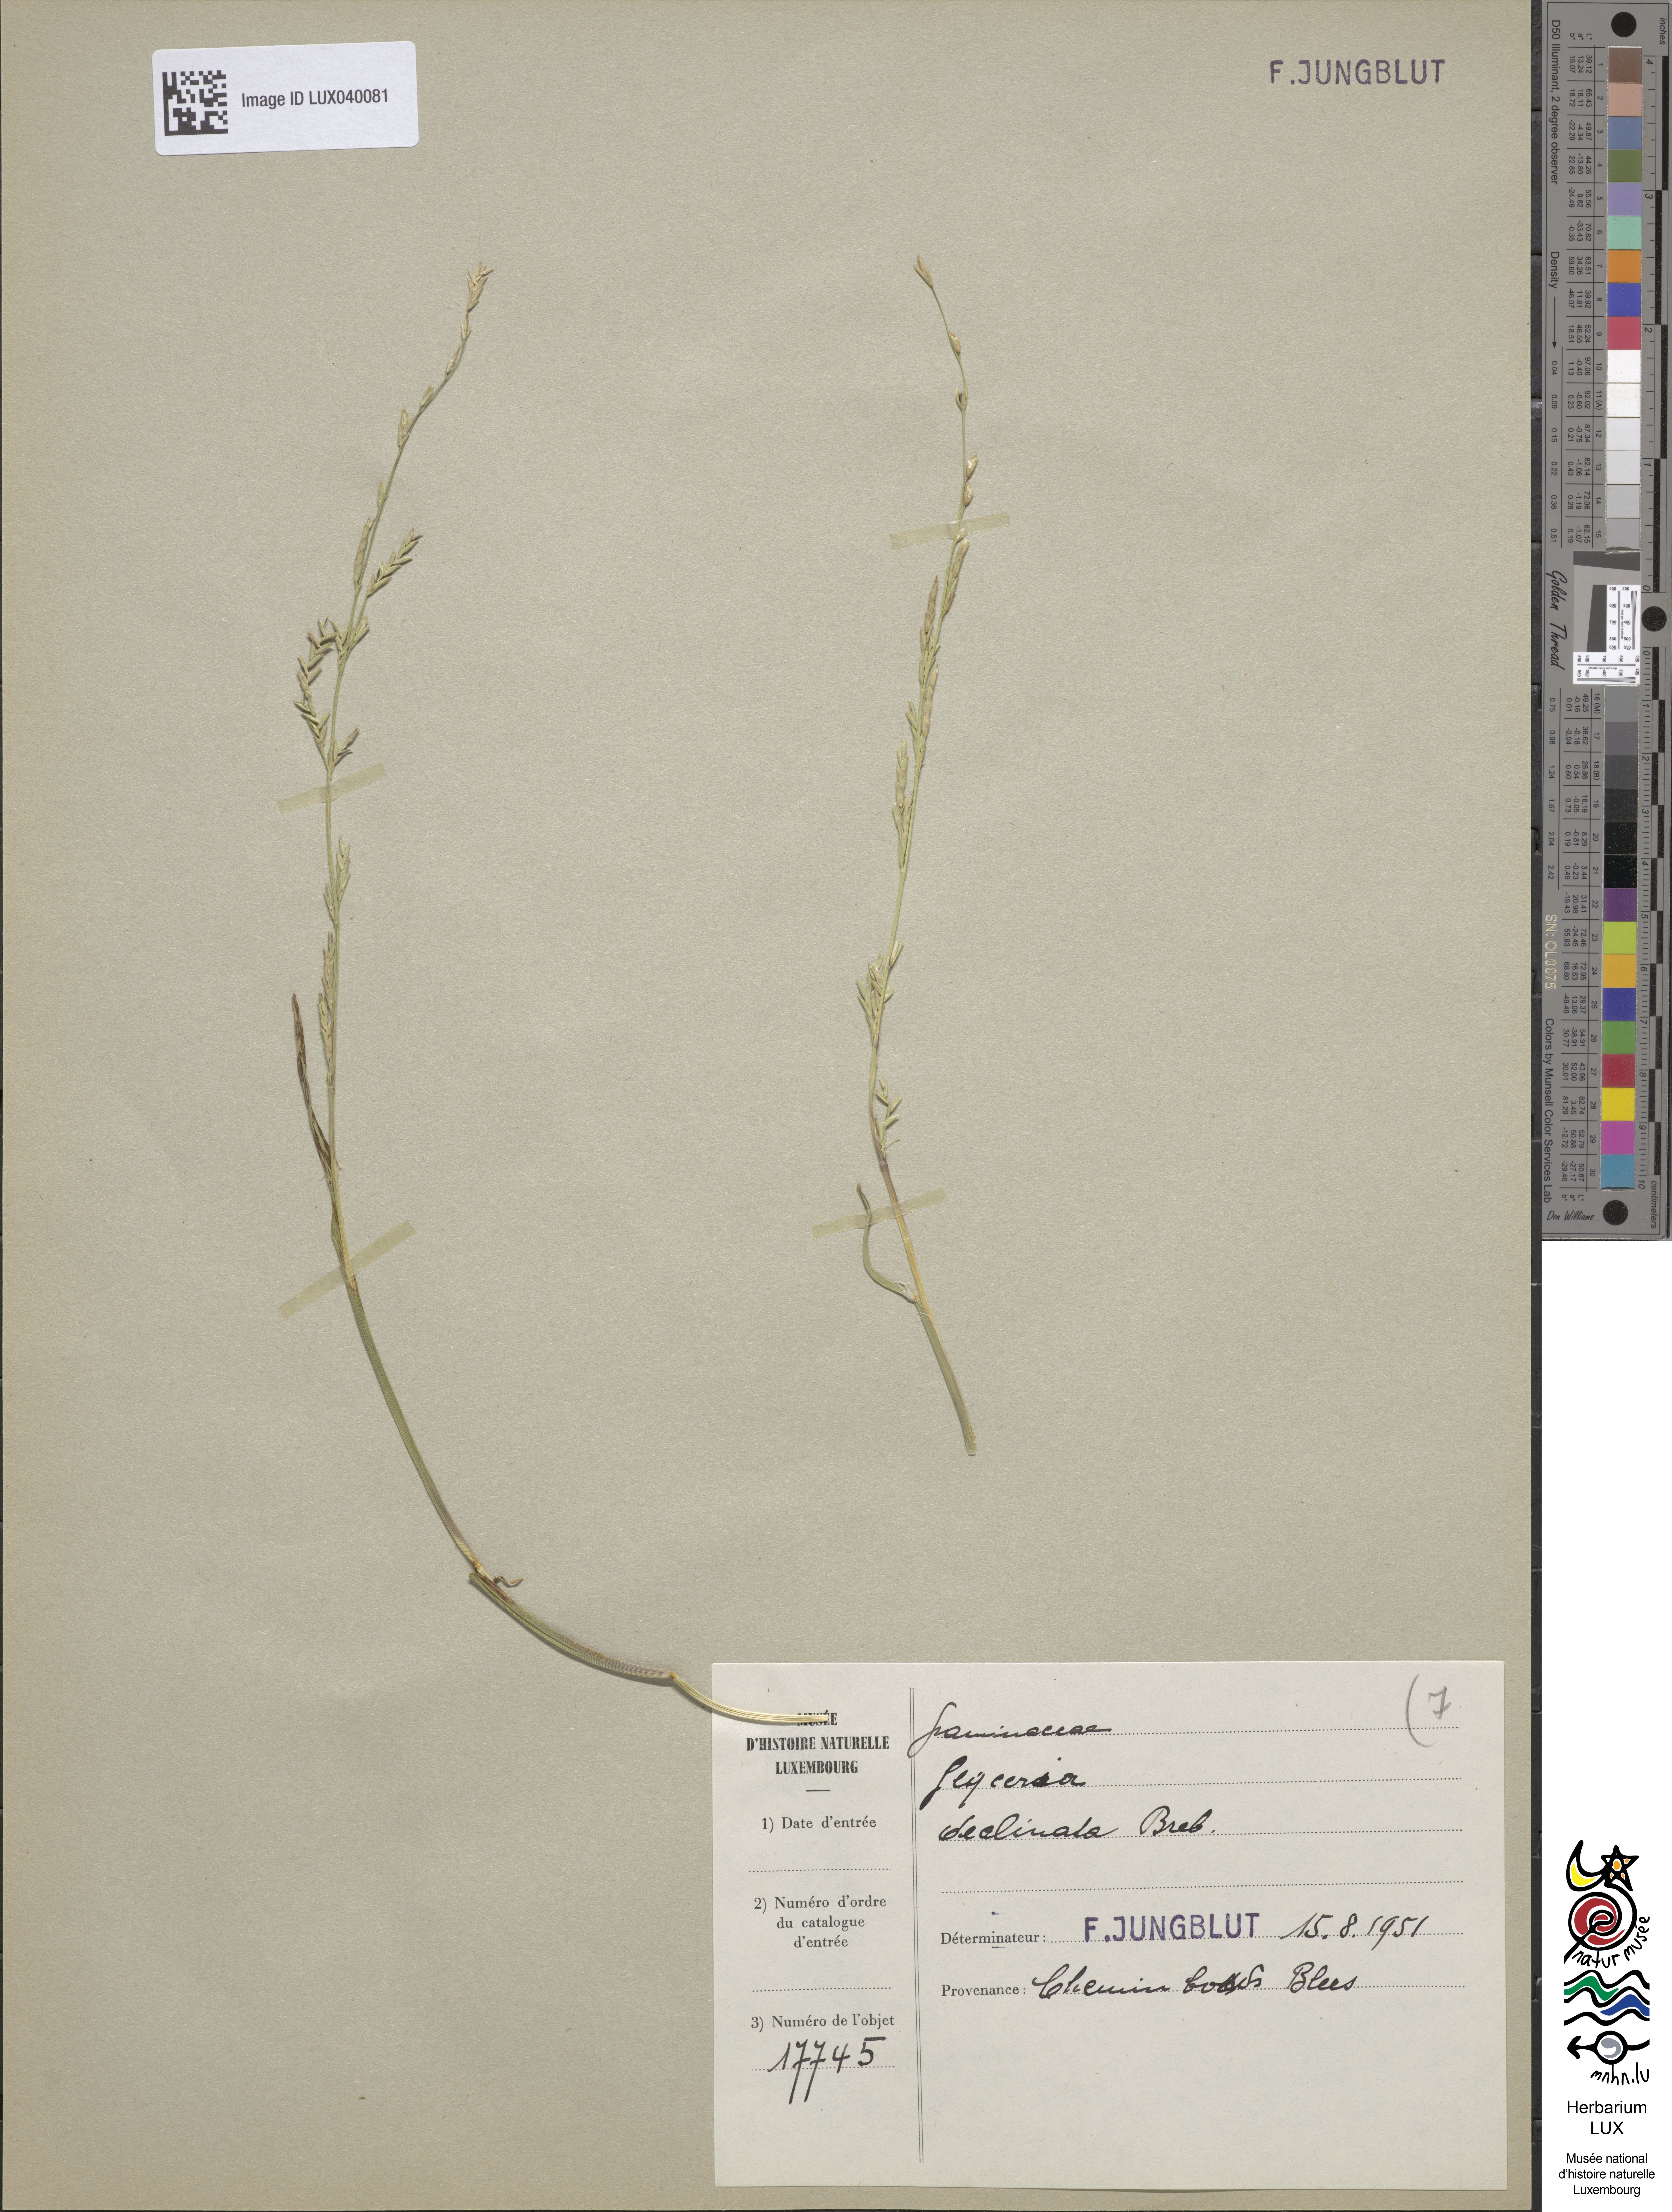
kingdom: Plantae
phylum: Tracheophyta
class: Liliopsida
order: Poales
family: Poaceae
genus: Glyceria
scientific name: Glyceria declinata
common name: Small sweet-grass
